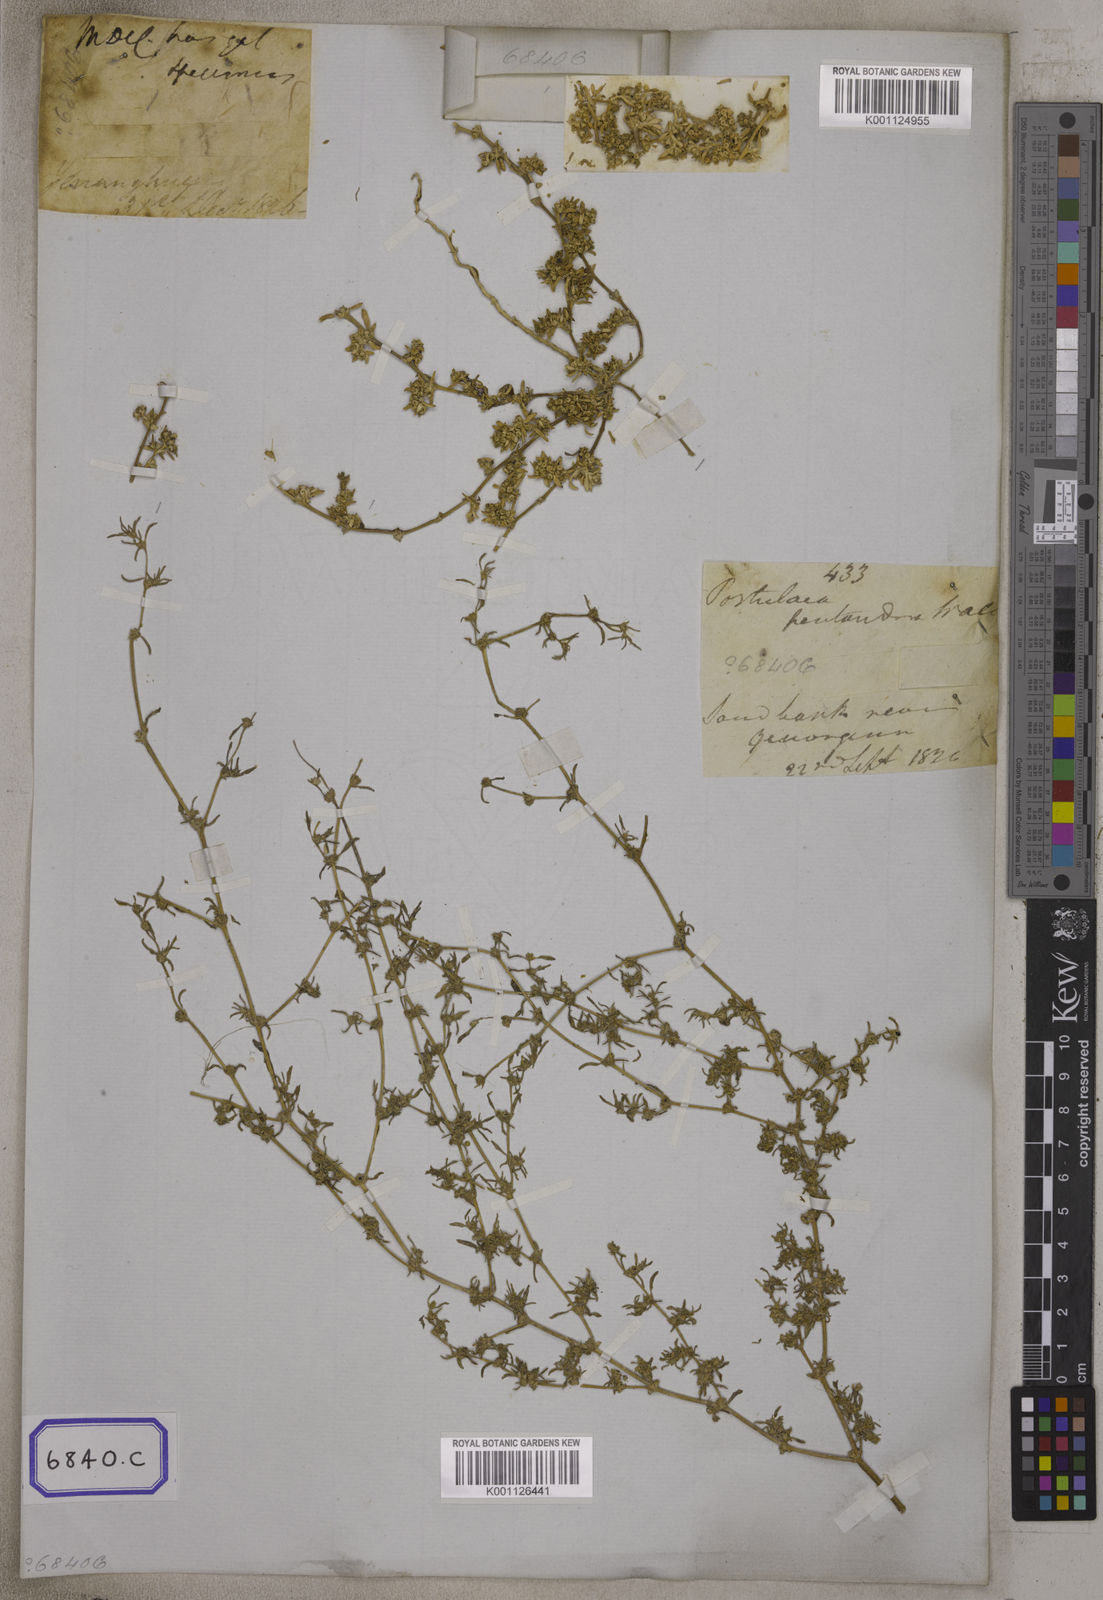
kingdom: Plantae
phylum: Tracheophyta
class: Magnoliopsida
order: Caryophyllales
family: Aizoaceae
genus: Trianthema
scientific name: Trianthema crystallinum
